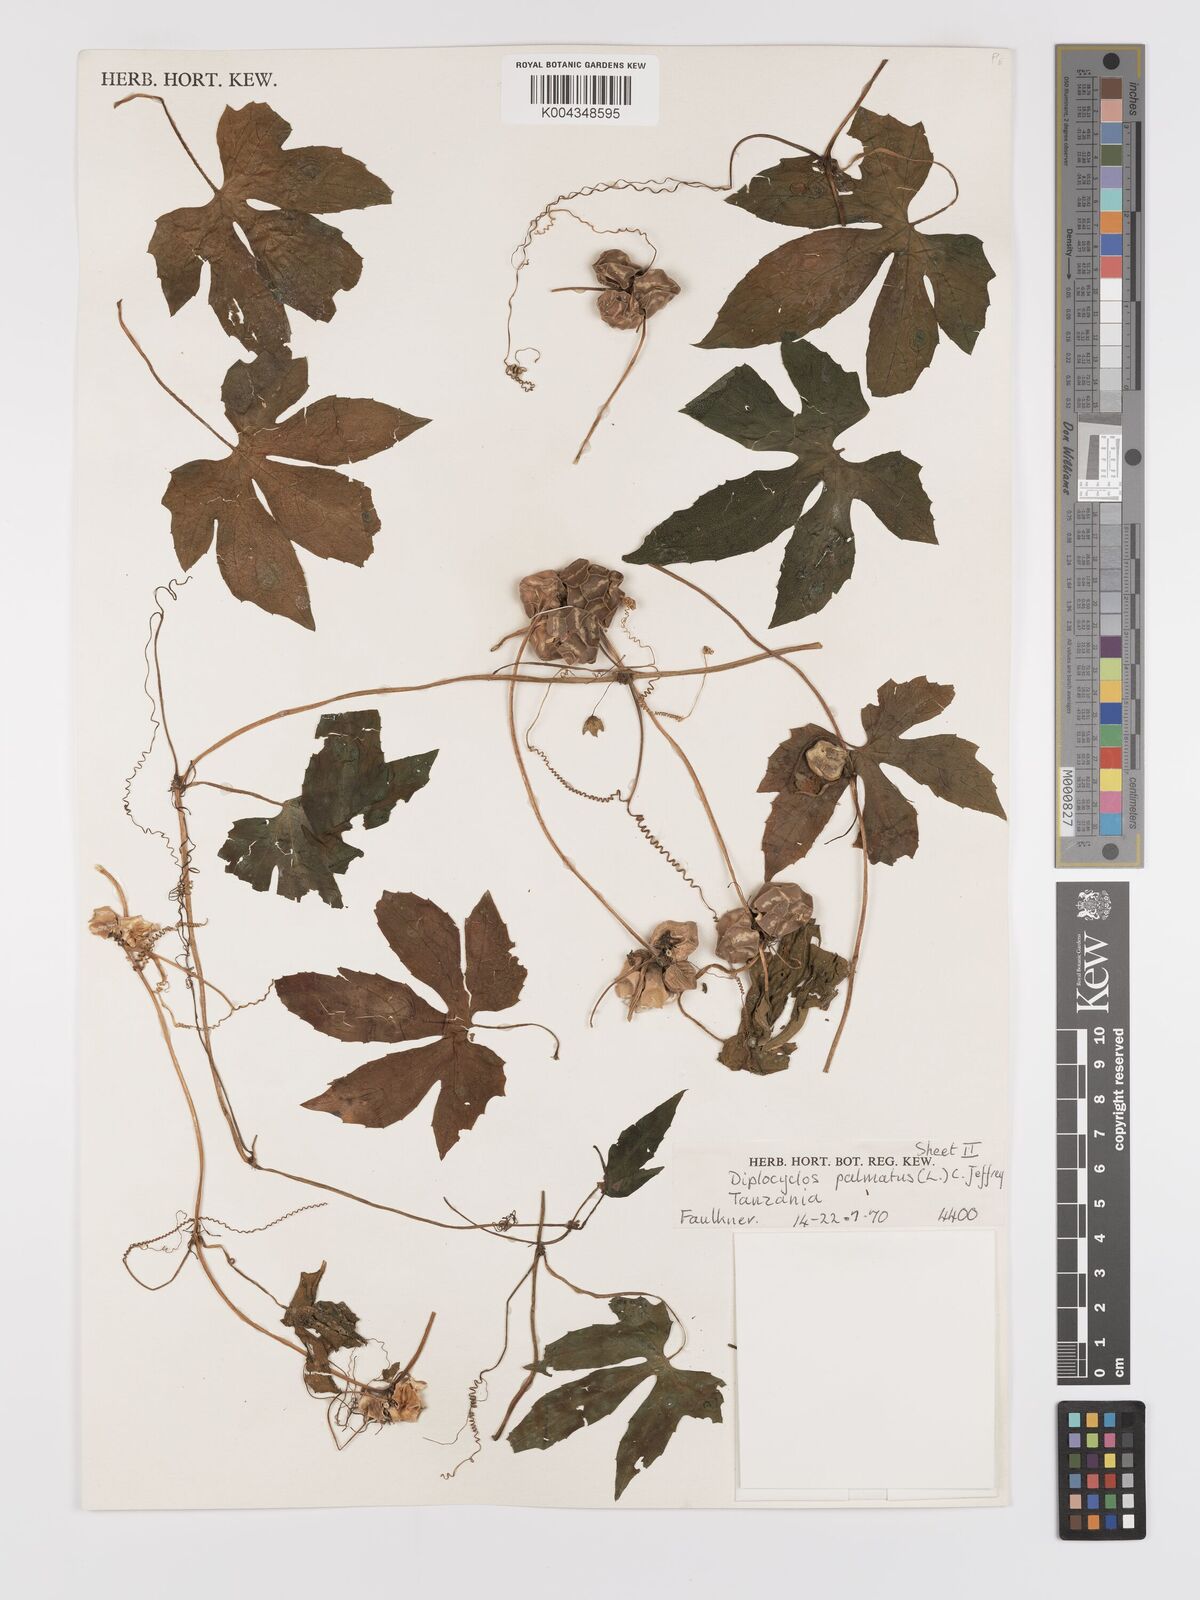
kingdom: Plantae
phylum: Tracheophyta
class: Magnoliopsida
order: Cucurbitales
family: Cucurbitaceae
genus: Diplocyclos
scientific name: Diplocyclos palmatus
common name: Striped-cucumber
